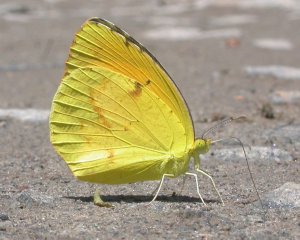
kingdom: Animalia
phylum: Arthropoda
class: Insecta
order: Lepidoptera
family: Pieridae
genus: Abaeis
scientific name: Abaeis nicippe
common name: Sleepy Orange
